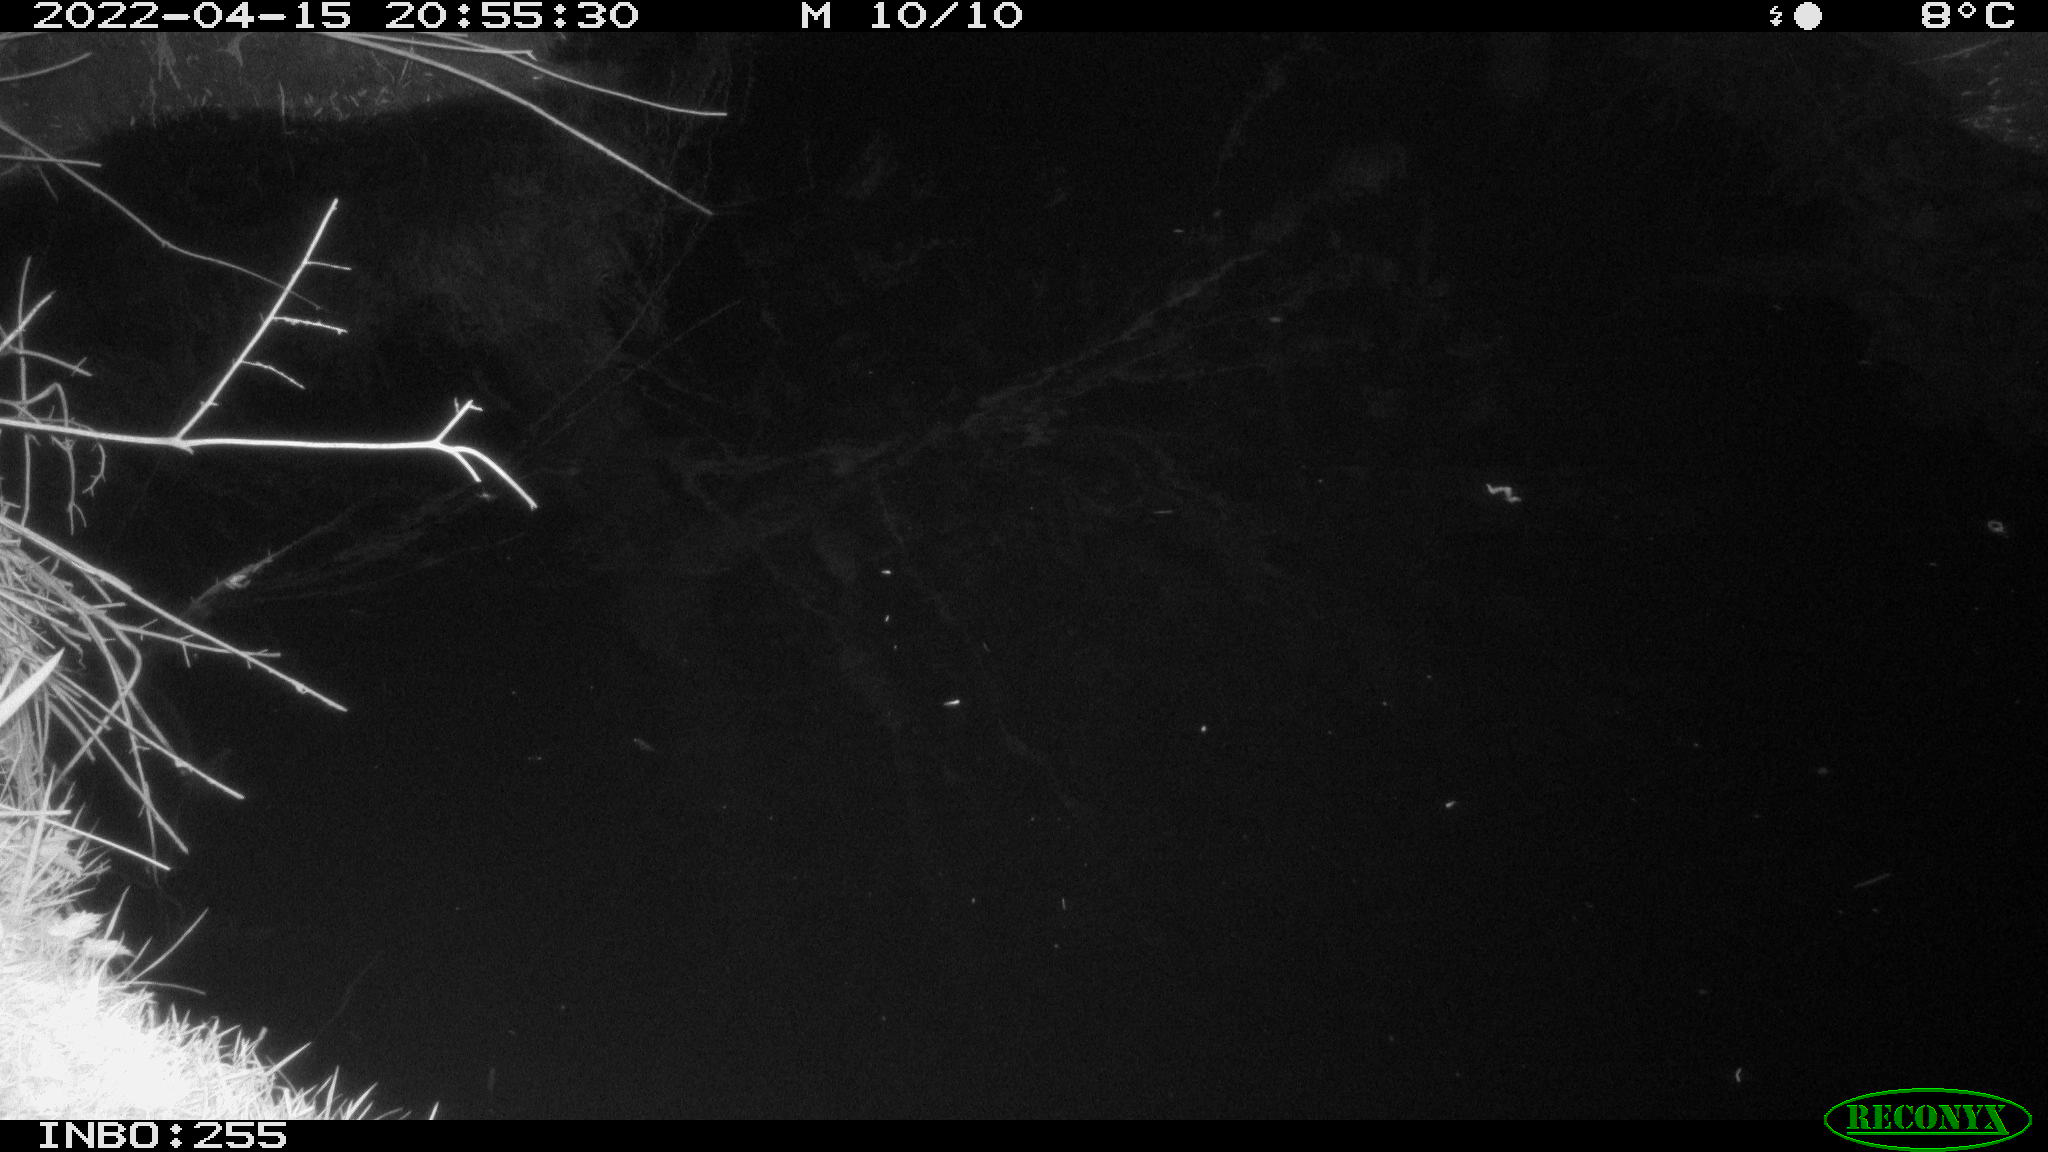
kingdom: Animalia
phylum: Chordata
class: Aves
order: Anseriformes
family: Anatidae
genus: Anas
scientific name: Anas platyrhynchos
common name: Mallard
